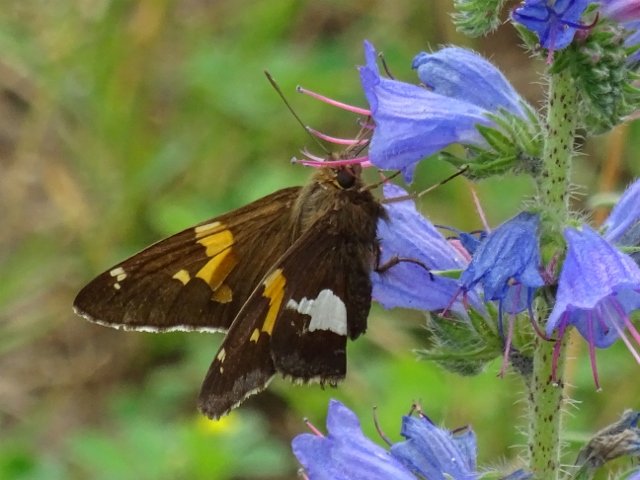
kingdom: Animalia
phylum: Arthropoda
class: Insecta
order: Lepidoptera
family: Hesperiidae
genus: Epargyreus
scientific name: Epargyreus clarus
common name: Silver-spotted Skipper
